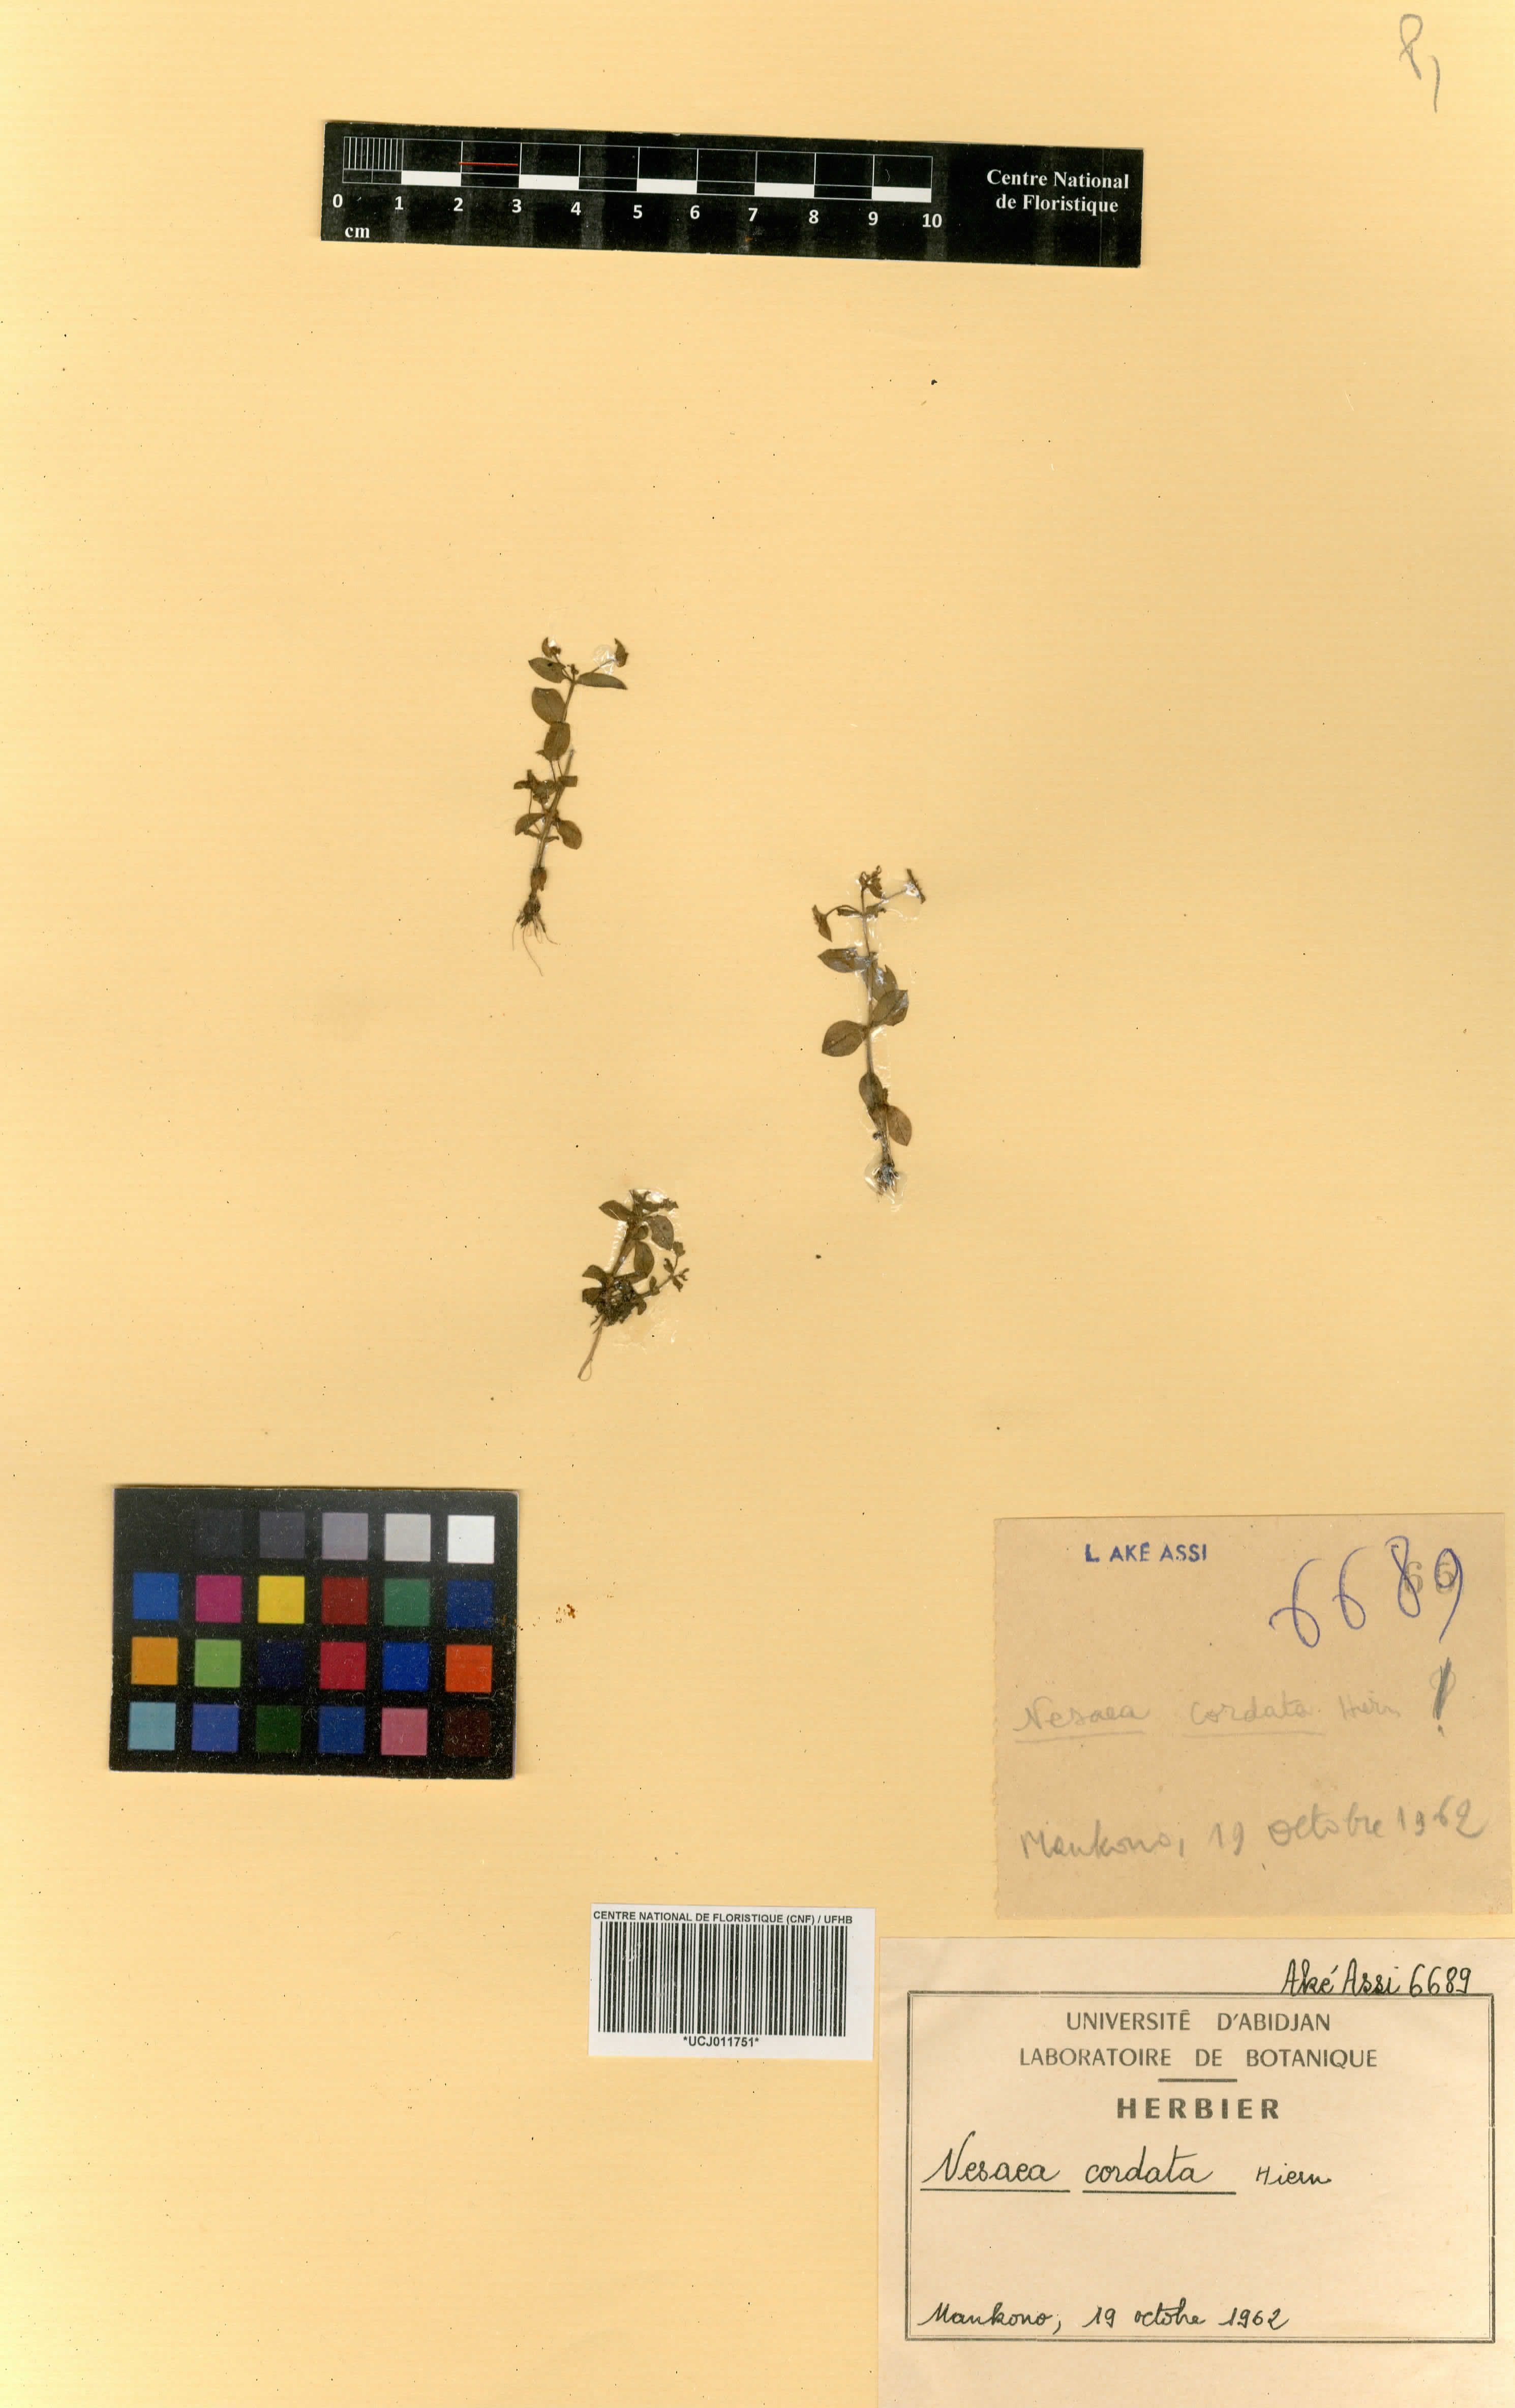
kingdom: Plantae
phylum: Tracheophyta
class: Magnoliopsida
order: Myrtales
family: Lythraceae
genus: Ammannia
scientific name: Ammannia involucrata
